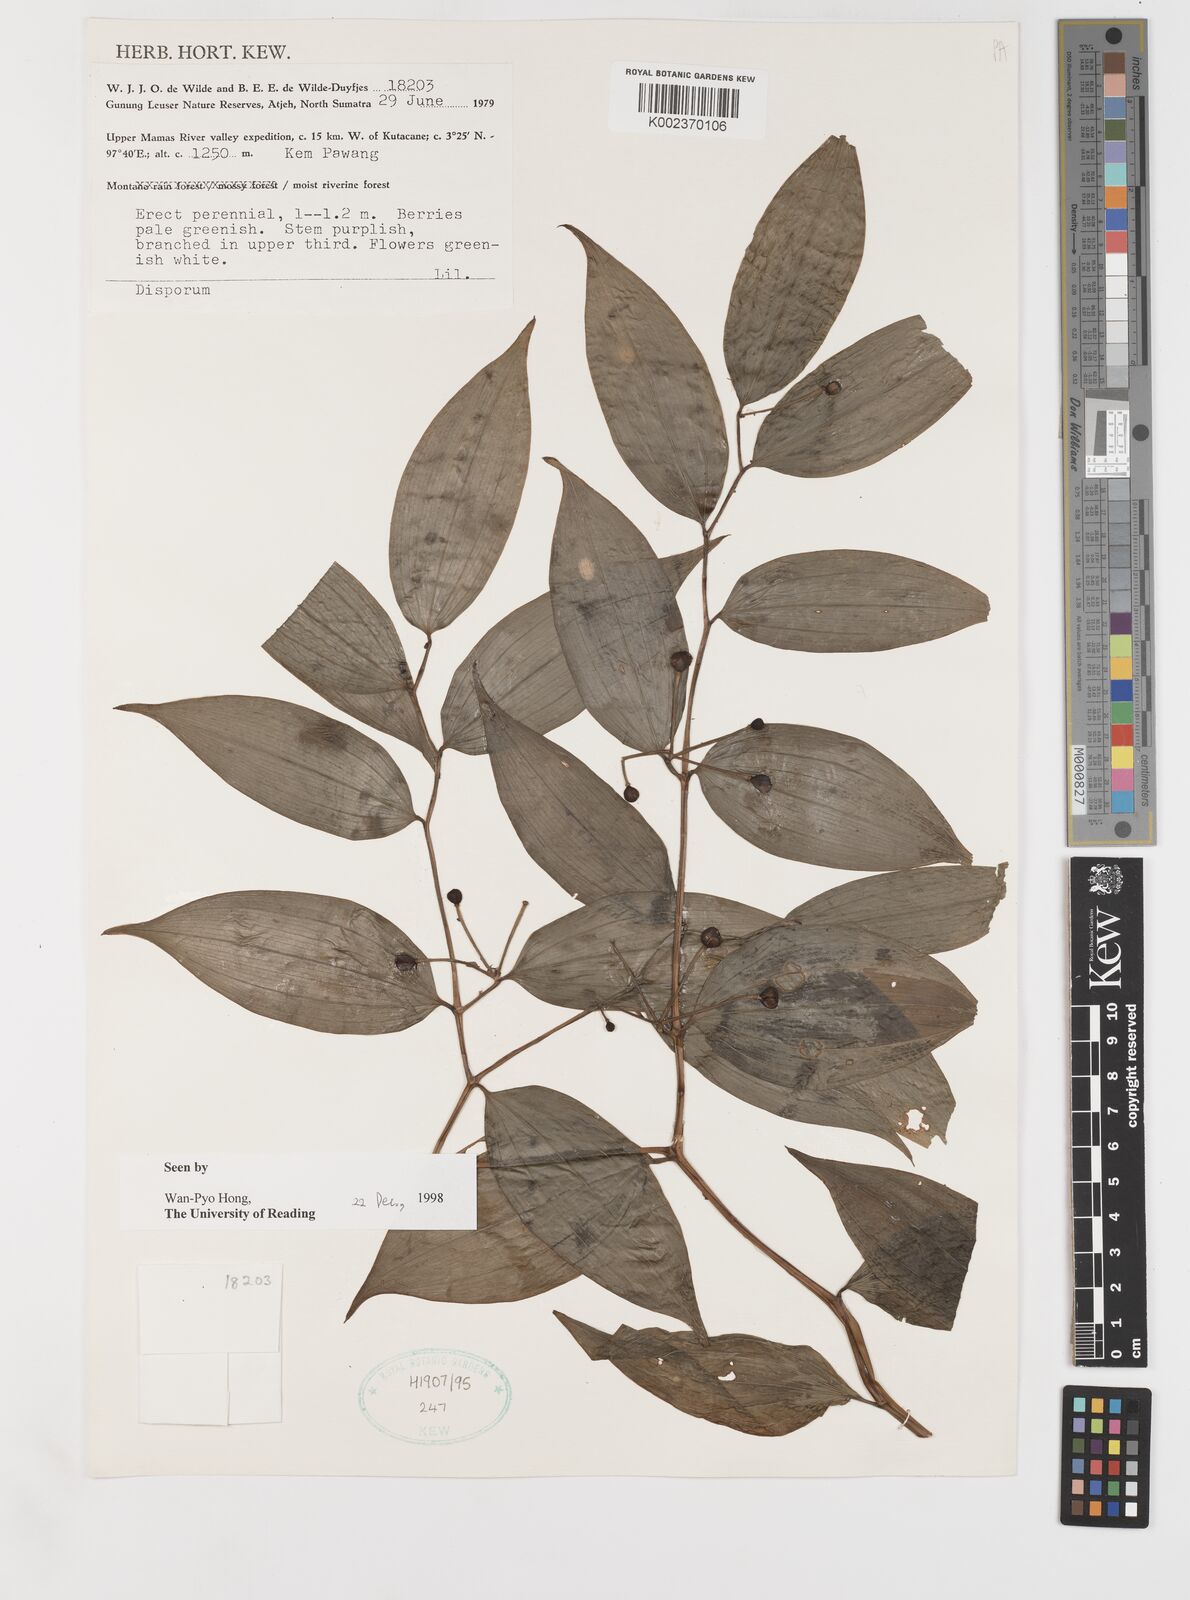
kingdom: Plantae
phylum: Tracheophyta
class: Liliopsida
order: Liliales
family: Colchicaceae
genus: Disporum
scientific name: Disporum
